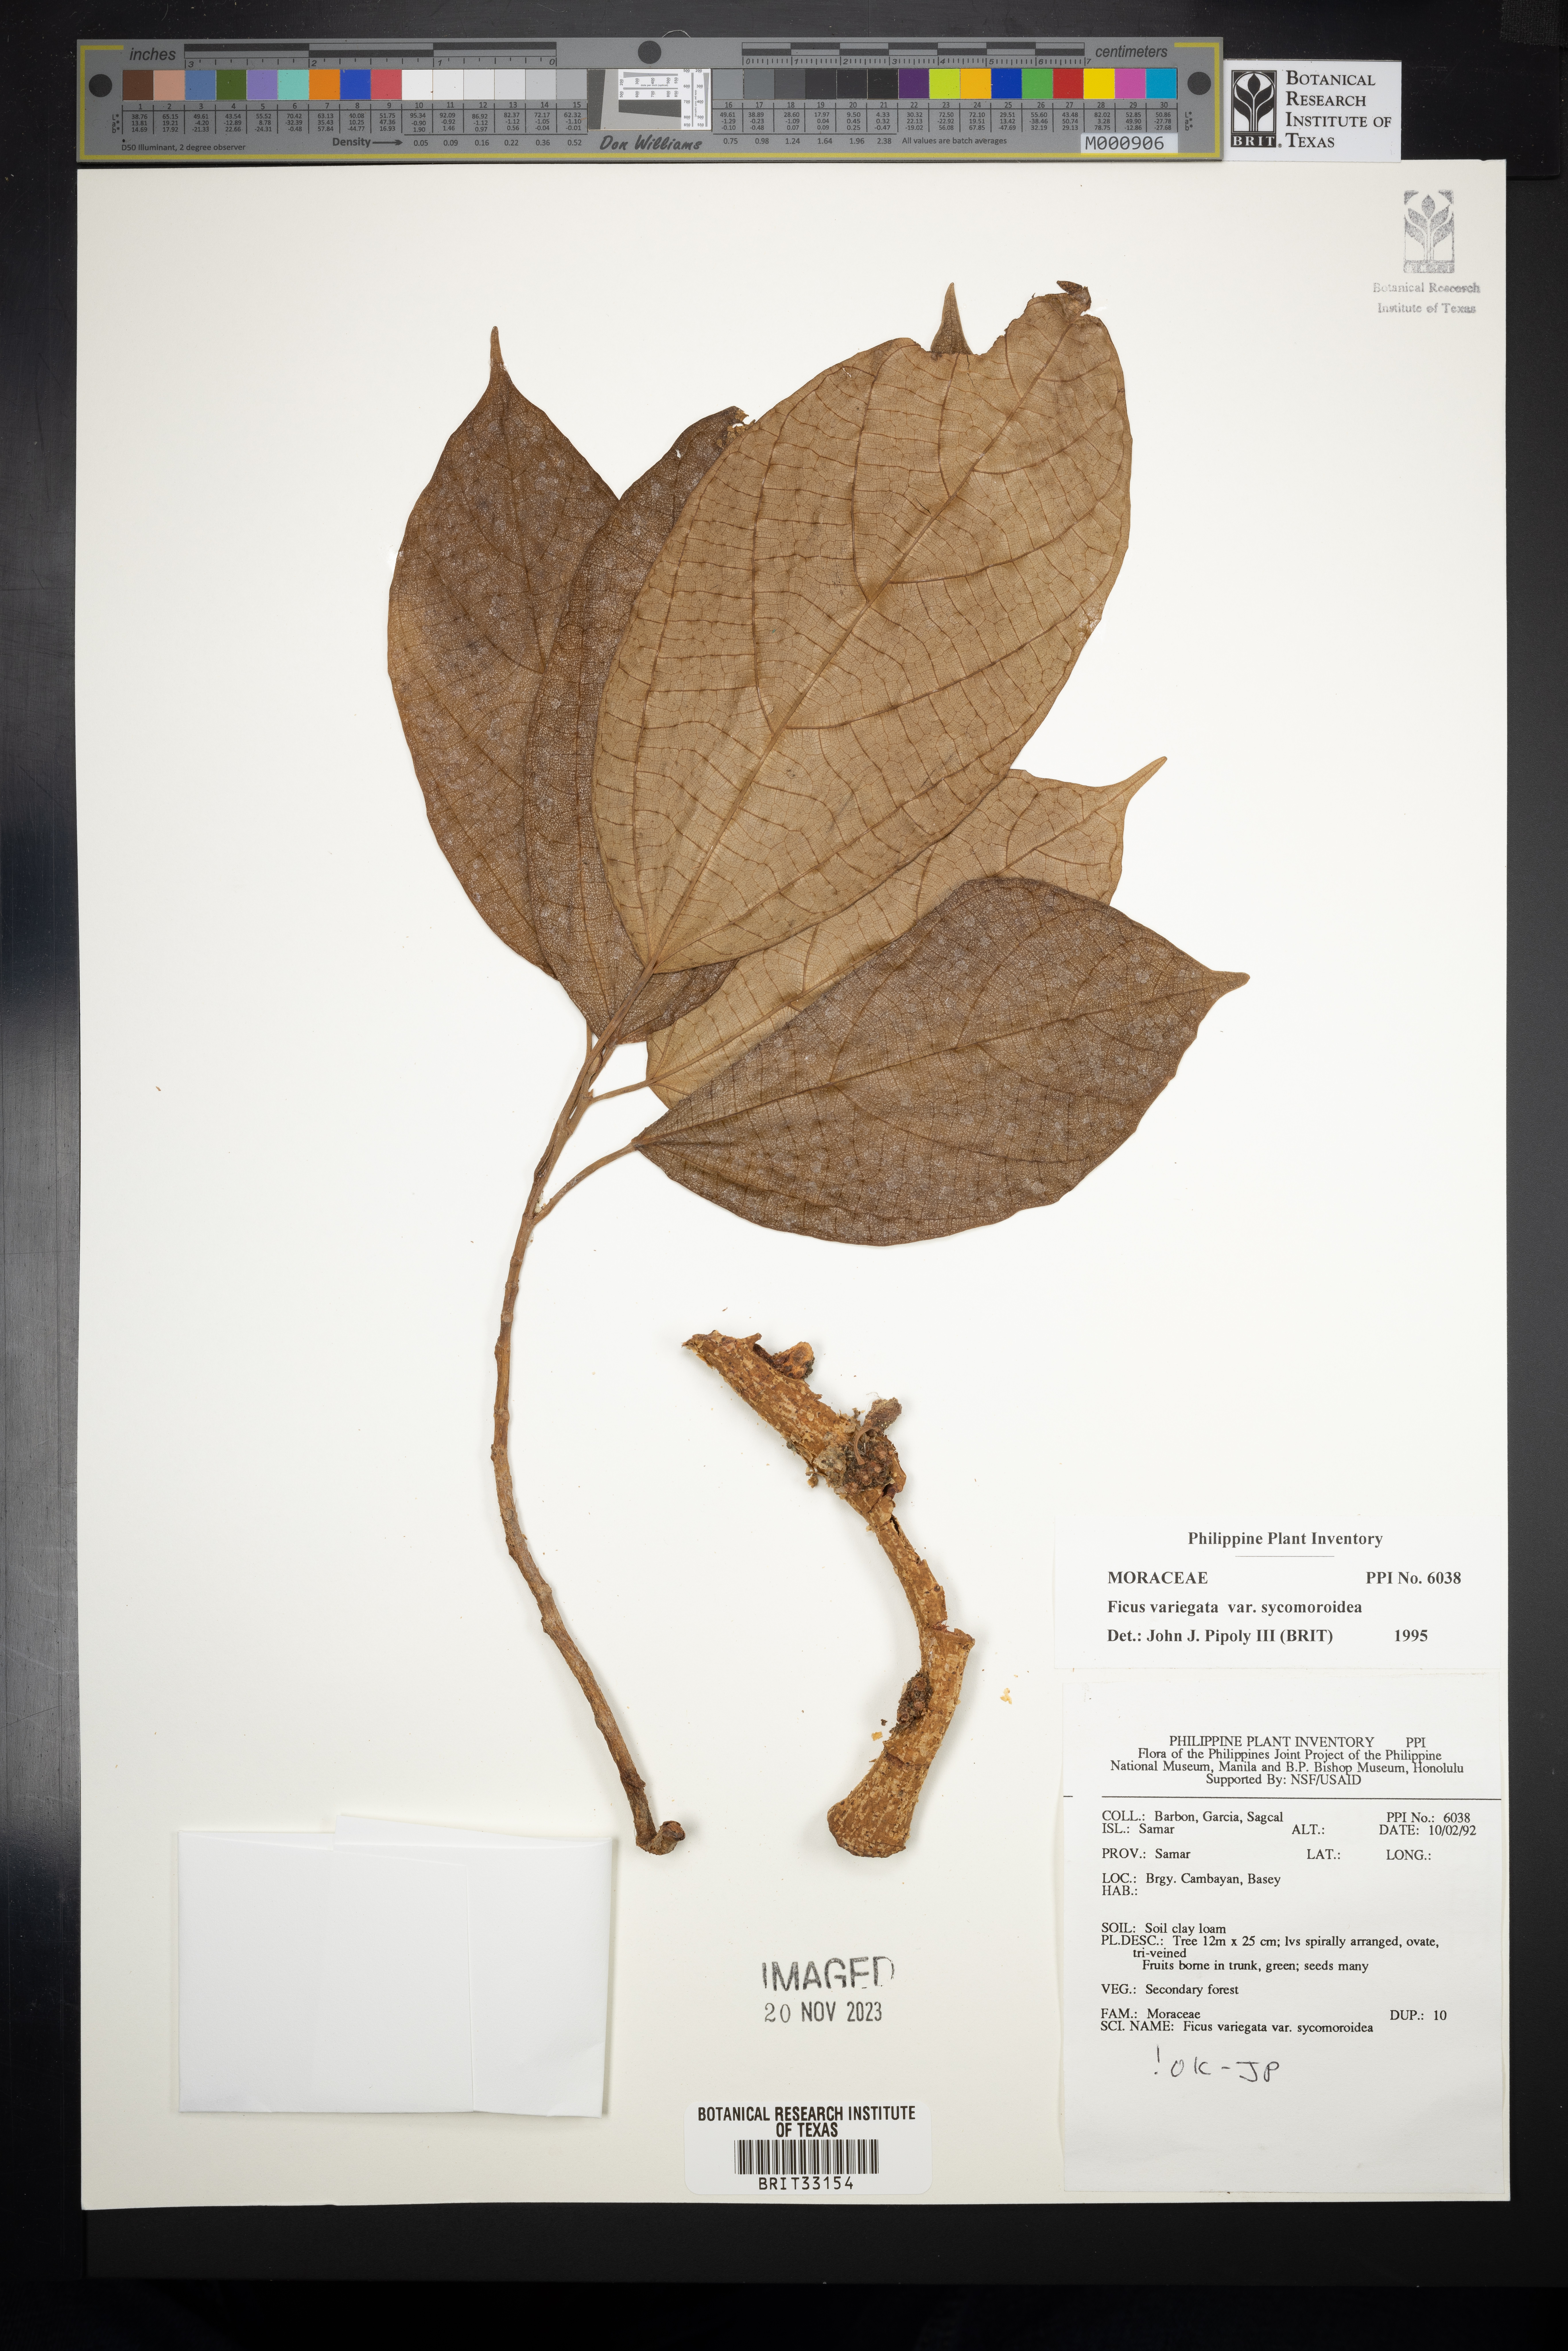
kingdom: Plantae
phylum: Tracheophyta
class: Magnoliopsida
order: Rosales
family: Moraceae
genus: Ficus
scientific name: Ficus variegata
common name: Variegated fig
